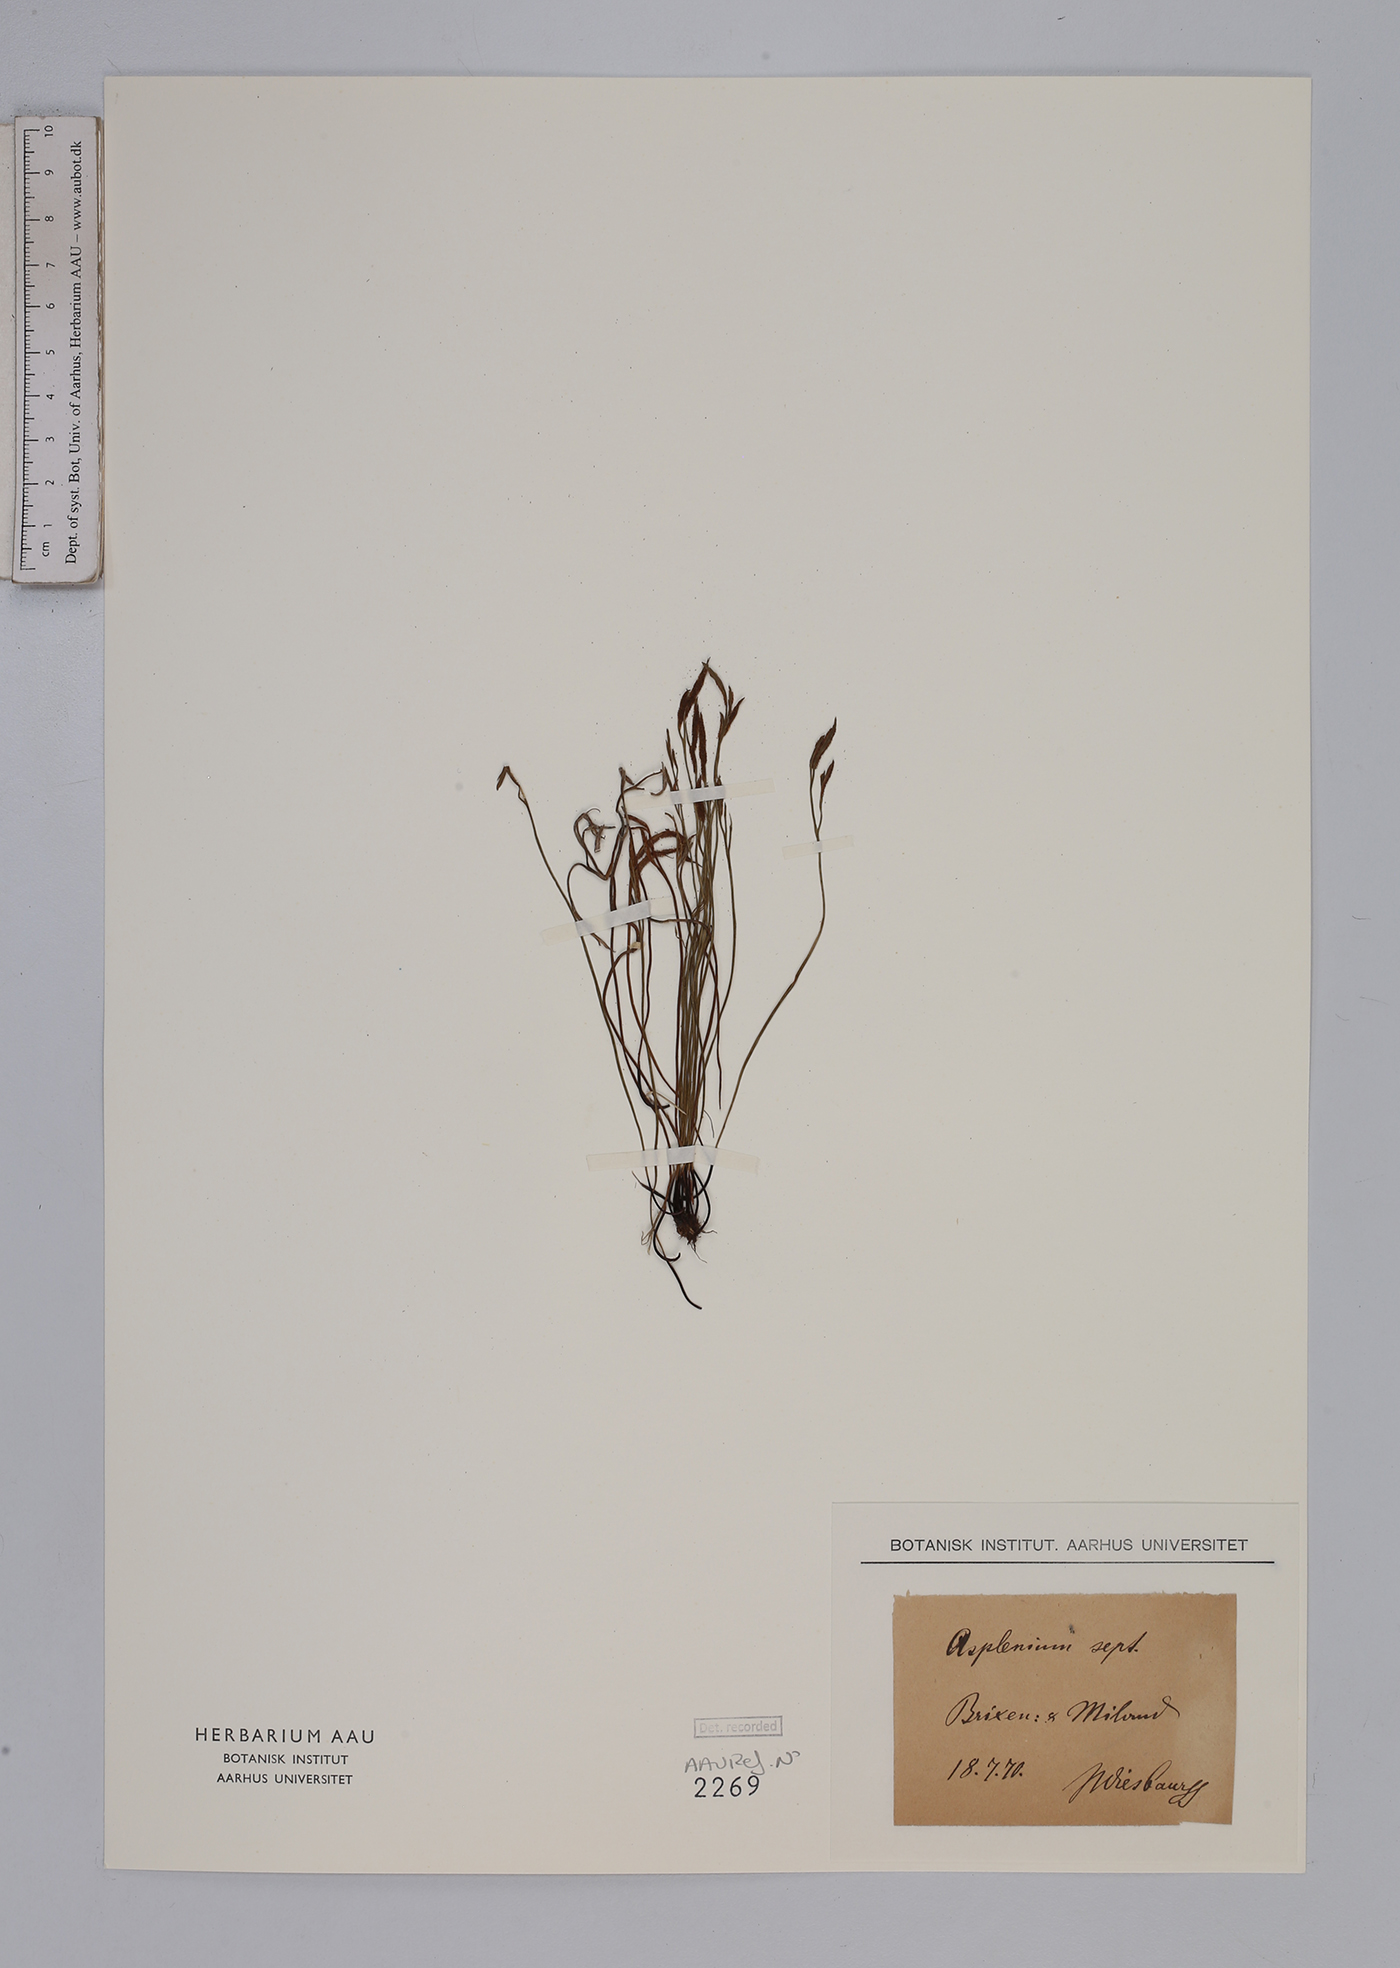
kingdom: Plantae
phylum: Tracheophyta
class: Polypodiopsida
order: Polypodiales
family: Aspleniaceae
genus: Asplenium
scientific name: Asplenium septentrionale
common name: Forked spleenwort
